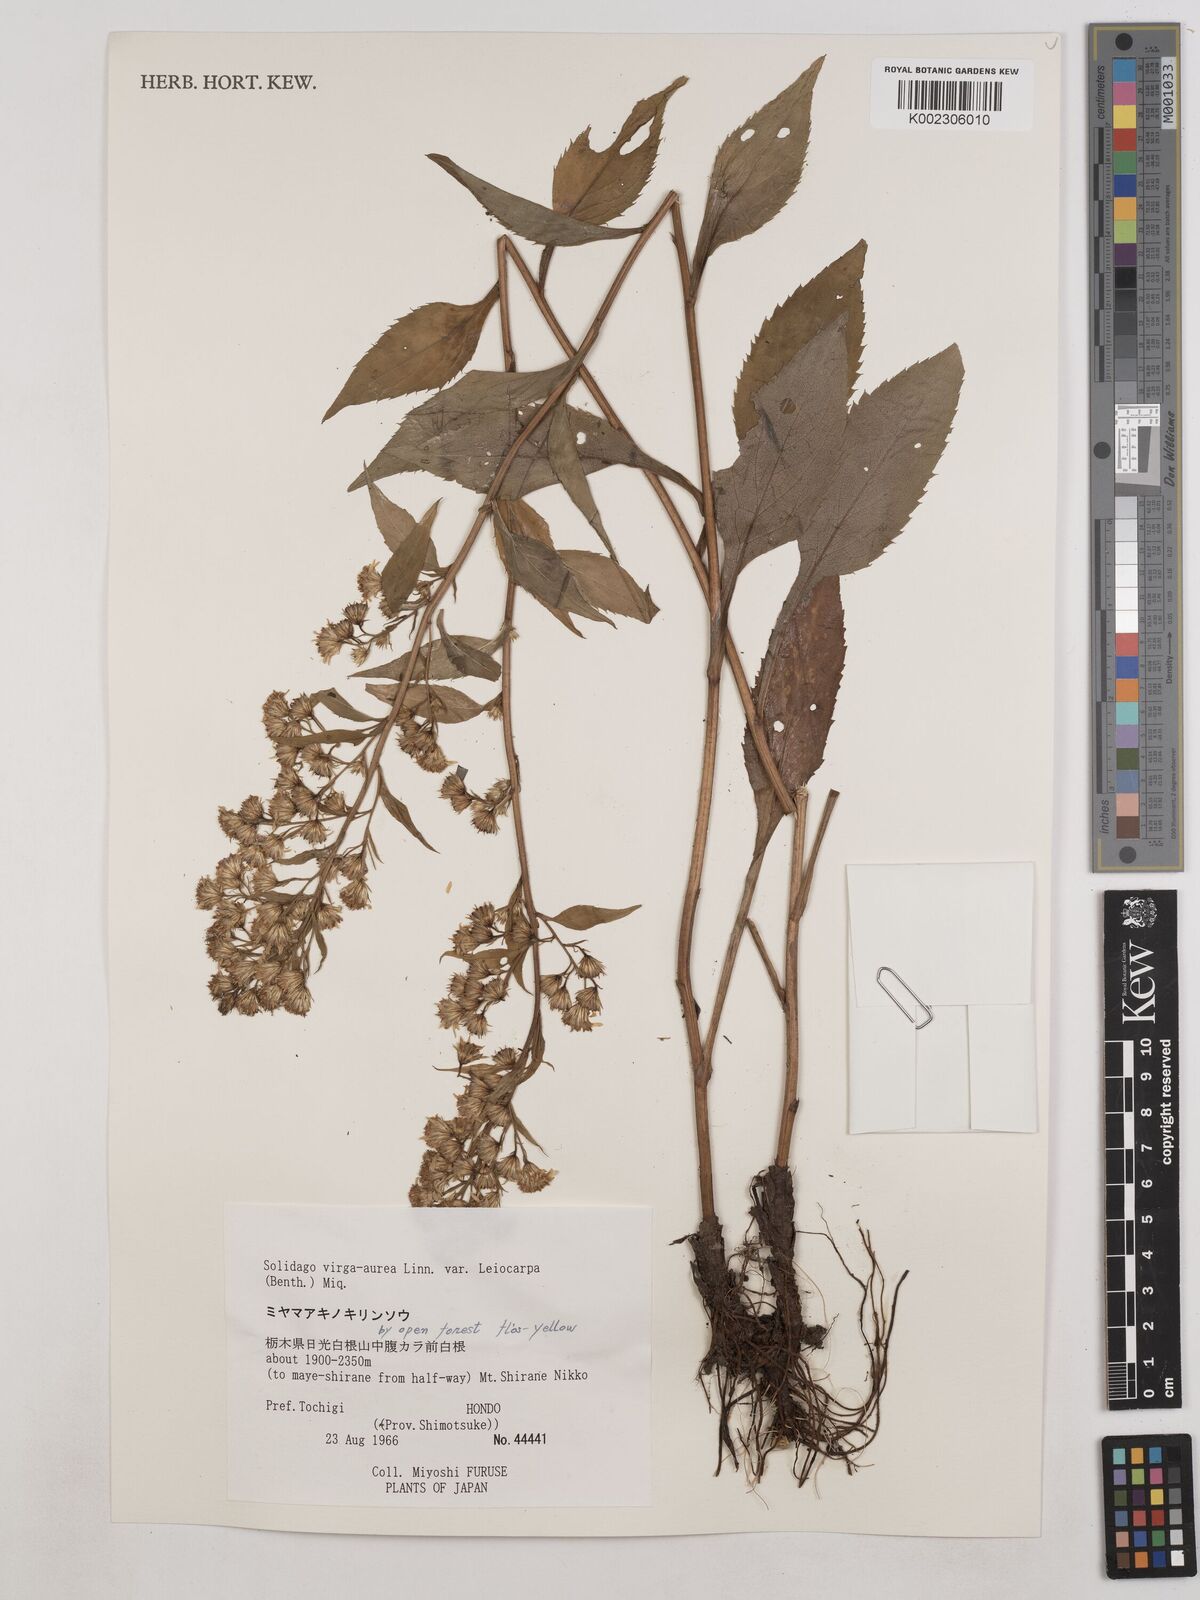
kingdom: Plantae
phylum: Tracheophyta
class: Magnoliopsida
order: Asterales
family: Asteraceae
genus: Solidago
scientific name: Solidago decurrens
